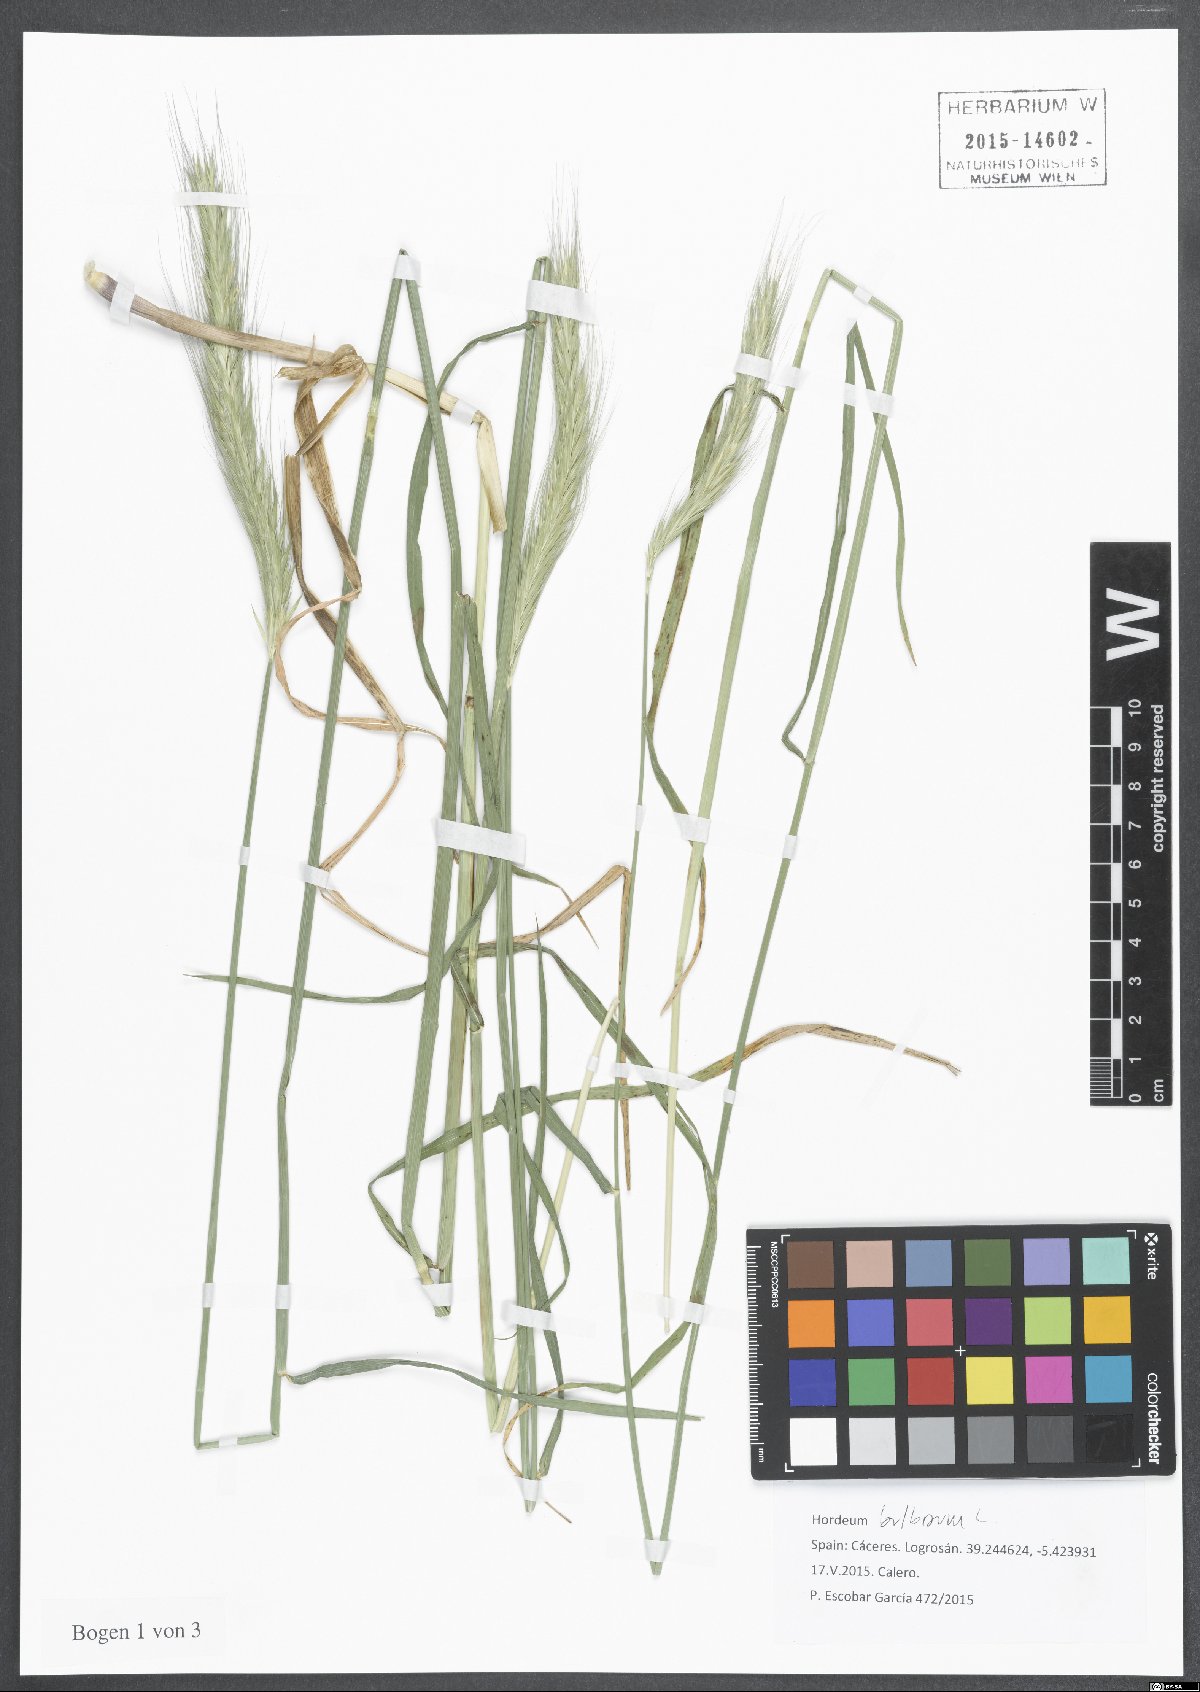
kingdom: Plantae
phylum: Tracheophyta
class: Liliopsida
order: Poales
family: Poaceae
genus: Hordeum
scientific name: Hordeum bulbosum
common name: Bulbous barley
